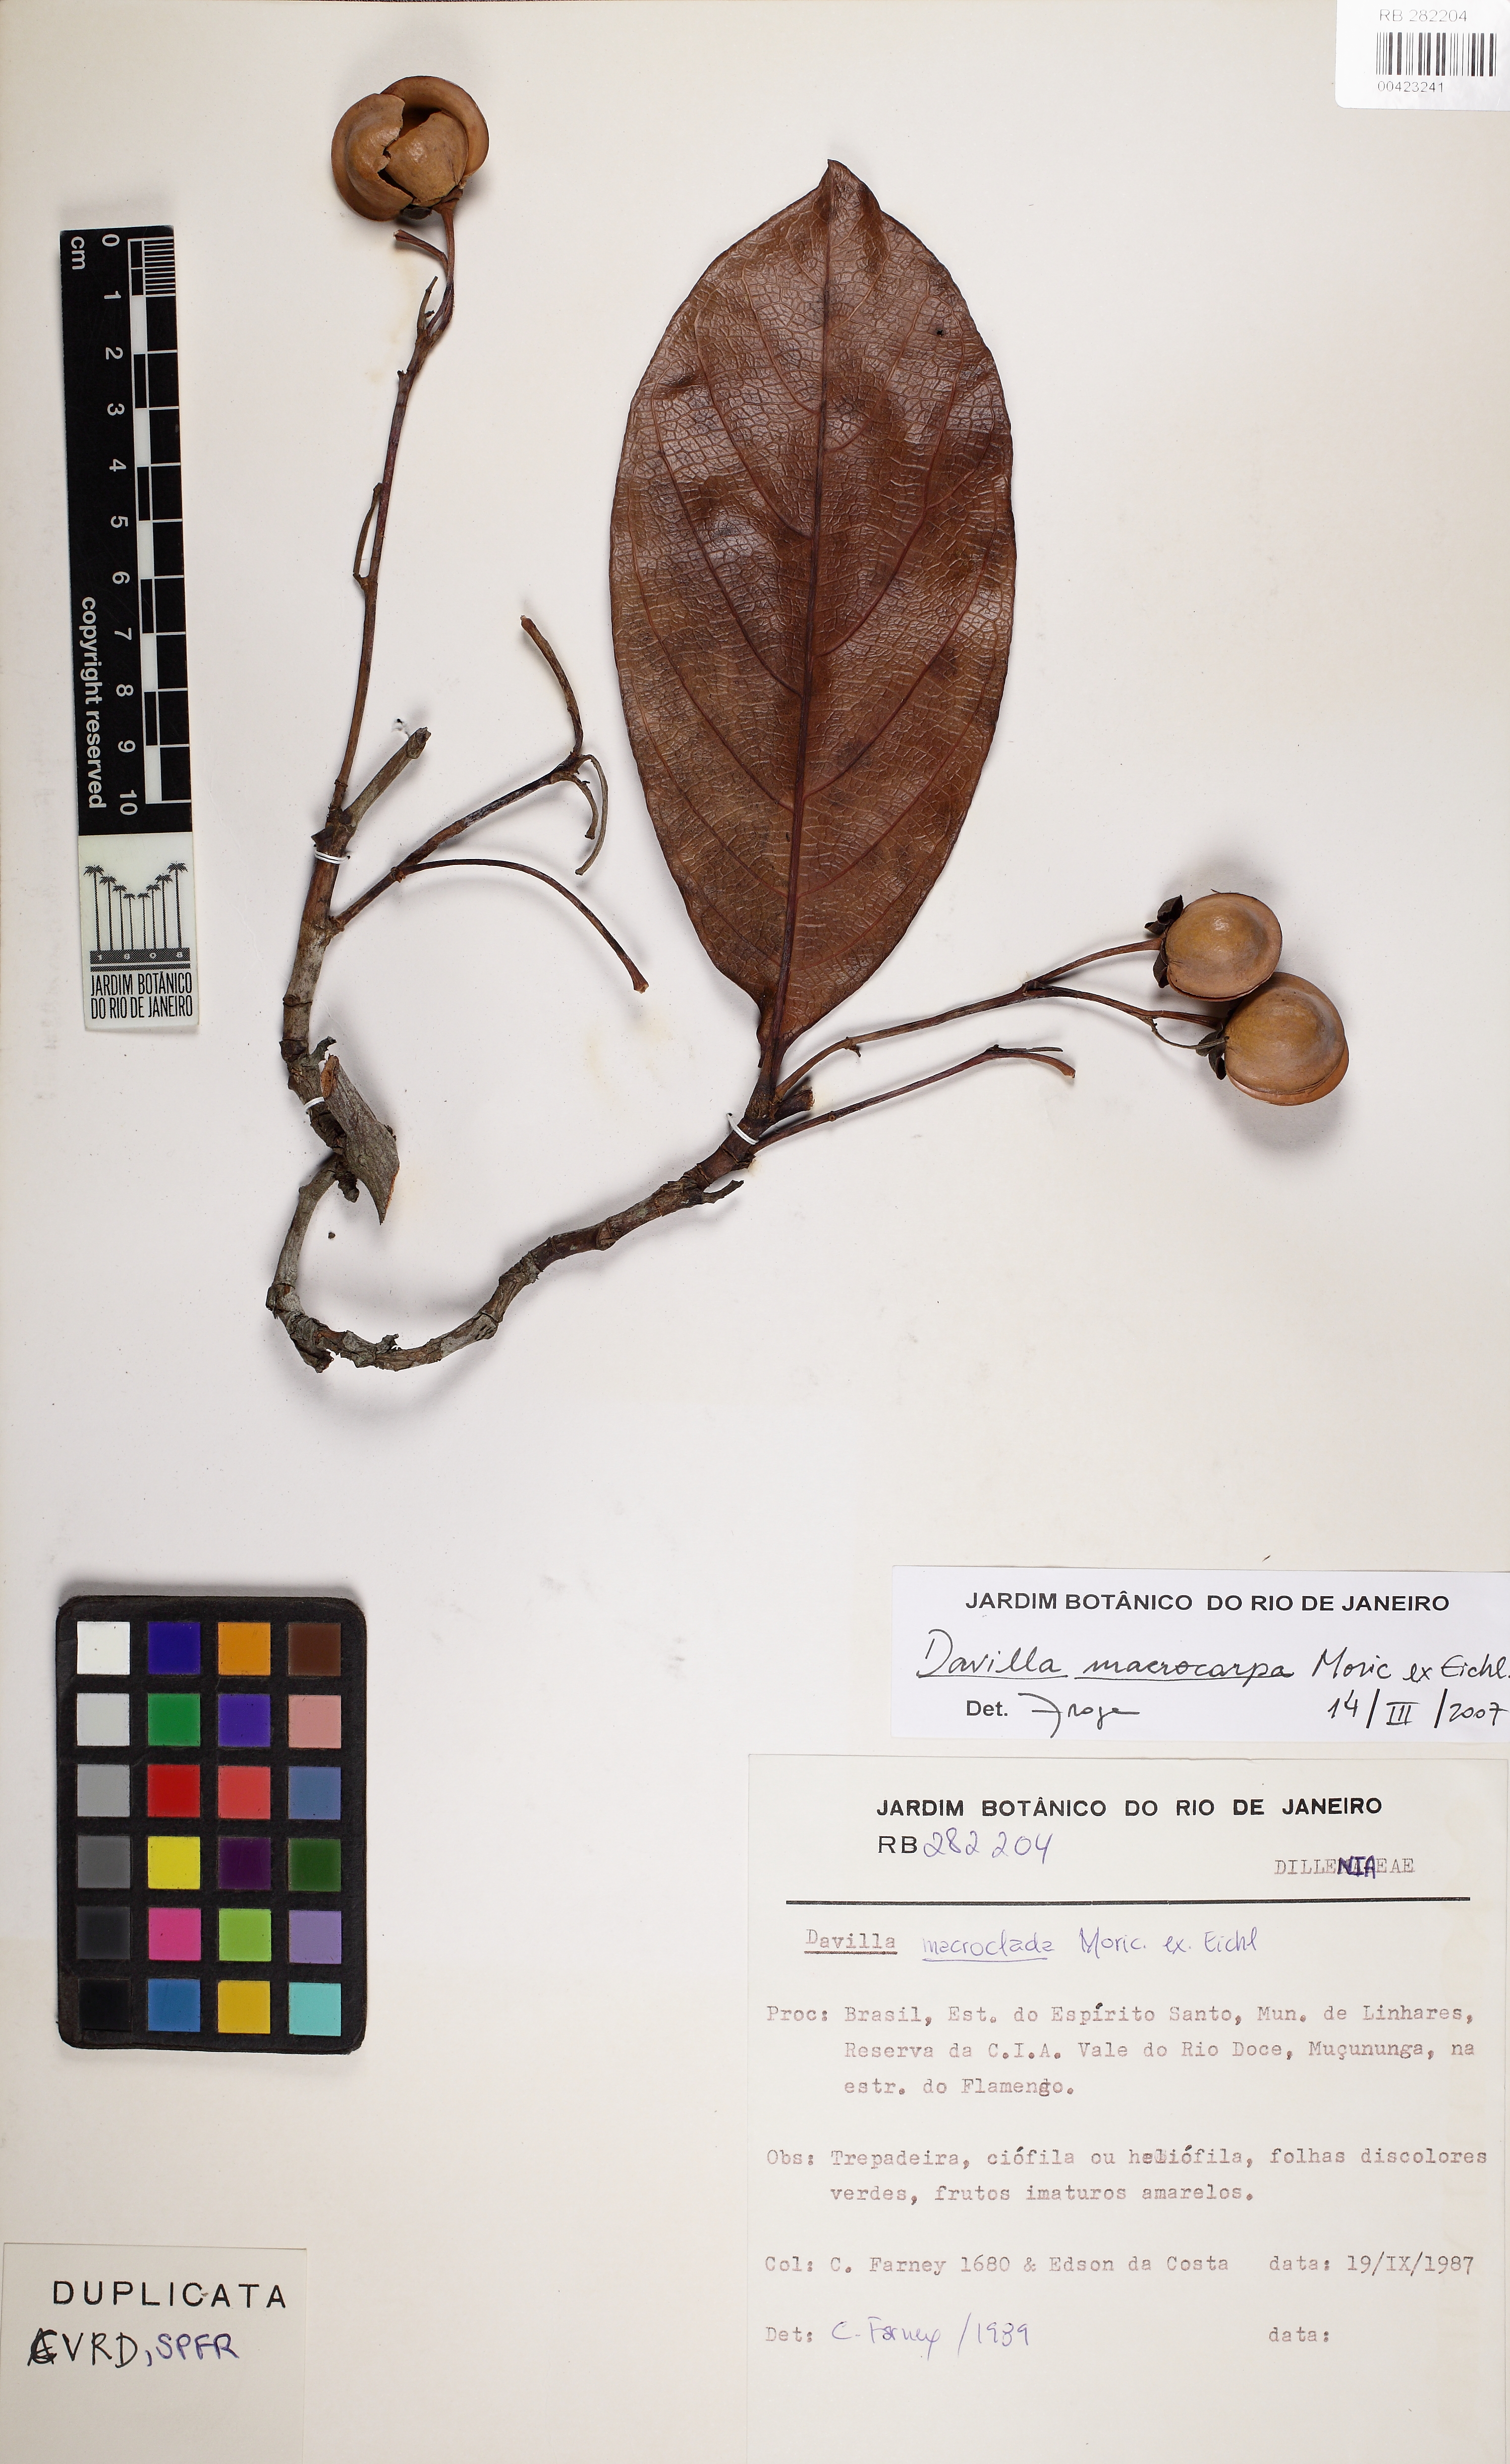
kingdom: Plantae
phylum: Tracheophyta
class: Magnoliopsida
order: Dilleniales
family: Dilleniaceae
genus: Davilla
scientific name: Davilla macrocarpa
